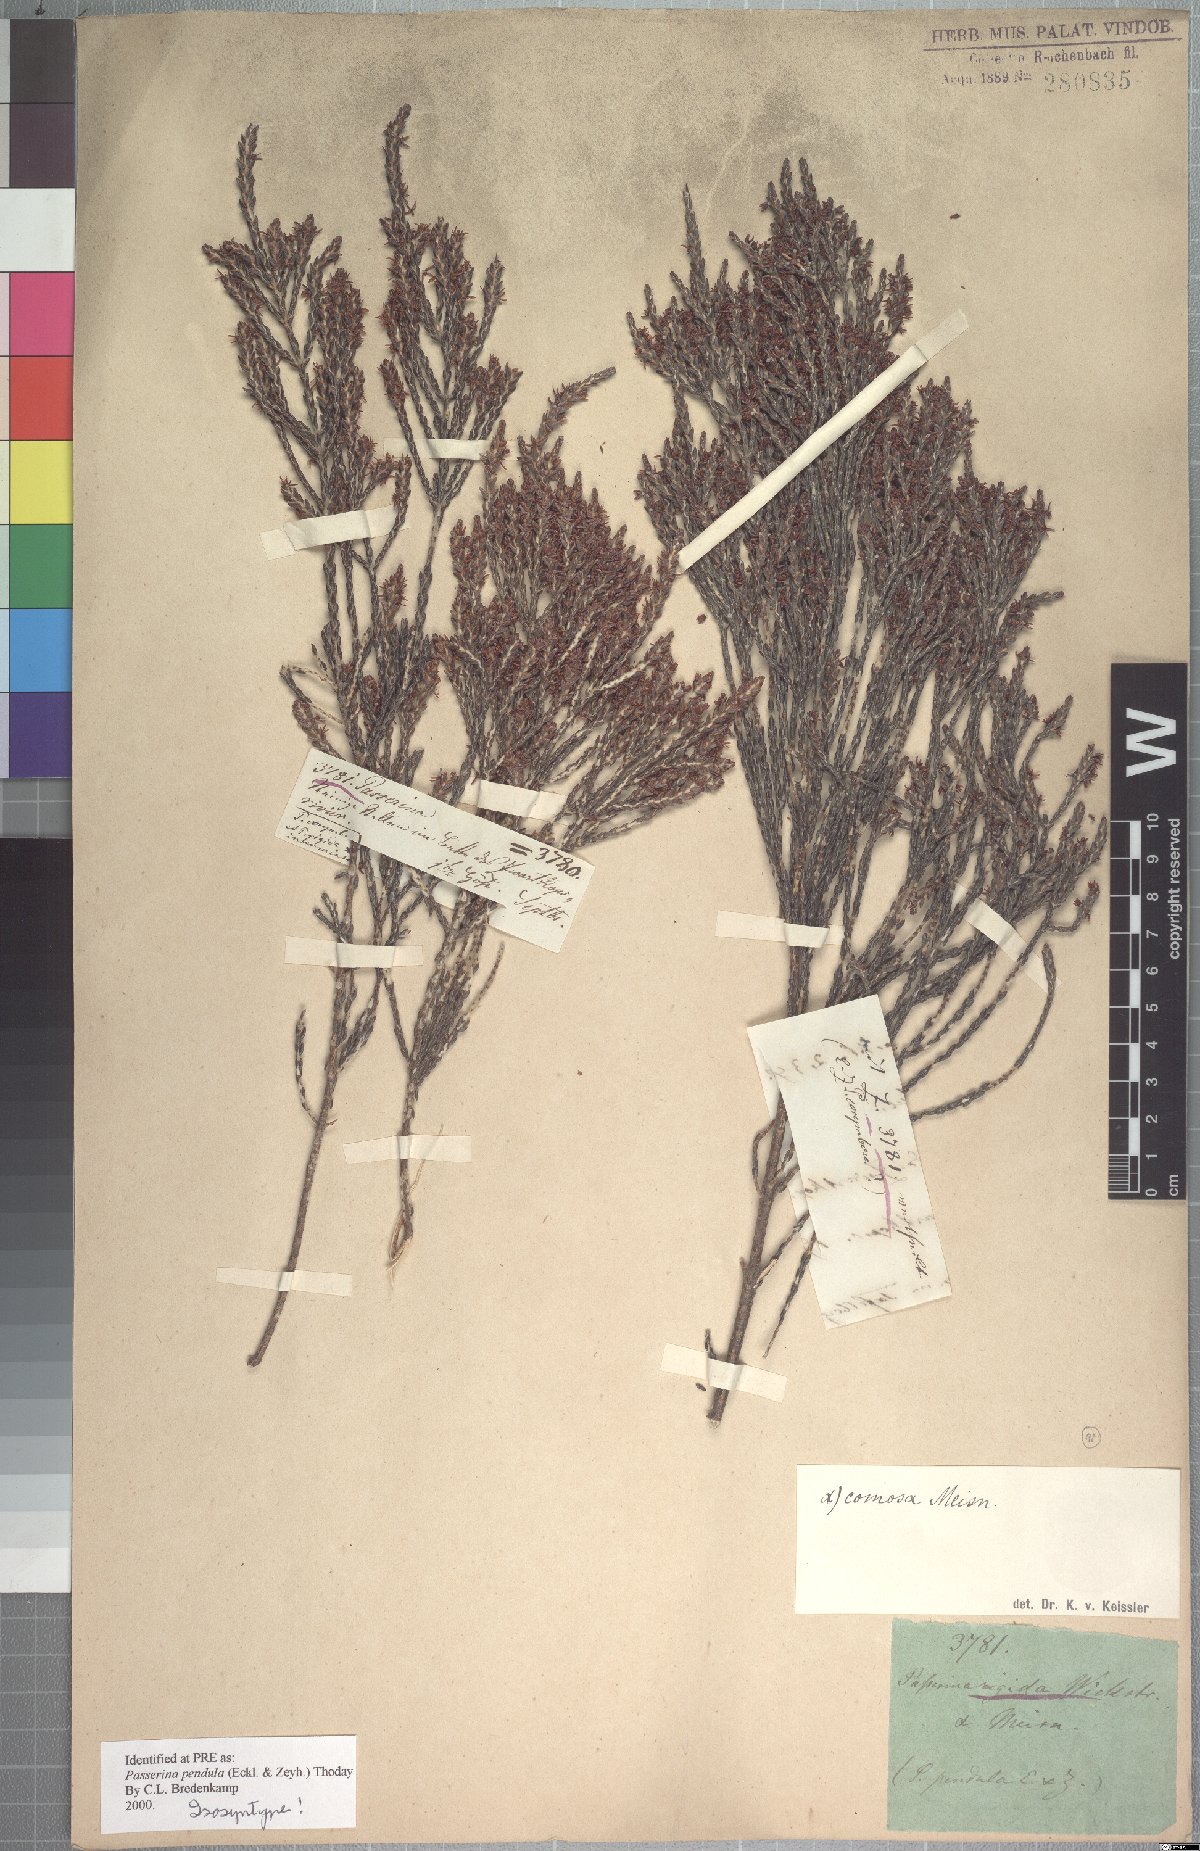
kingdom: Plantae
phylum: Tracheophyta
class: Magnoliopsida
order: Malvales
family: Thymelaeaceae
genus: Passerina
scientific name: Passerina pendula
